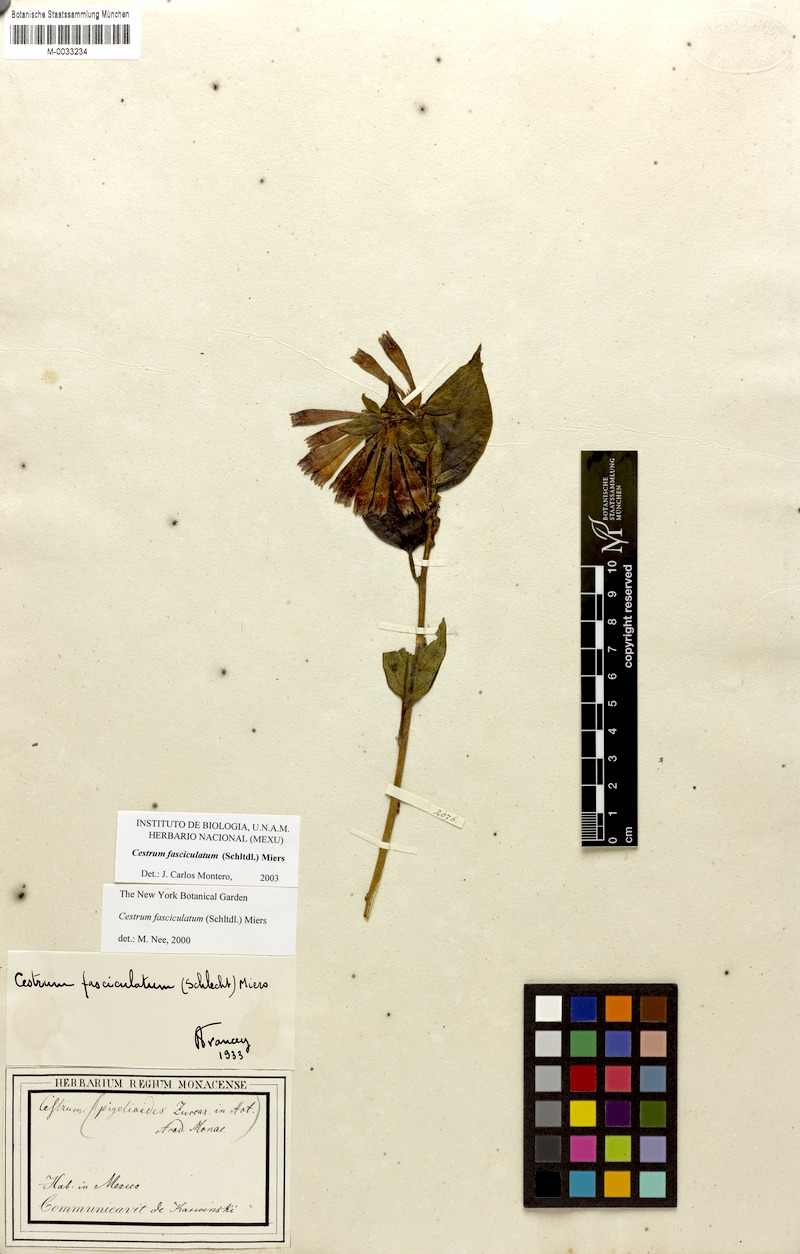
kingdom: Plantae
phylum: Tracheophyta
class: Magnoliopsida
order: Solanales
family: Solanaceae
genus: Cestrum
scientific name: Cestrum fasciculatum
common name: Early jessamine
